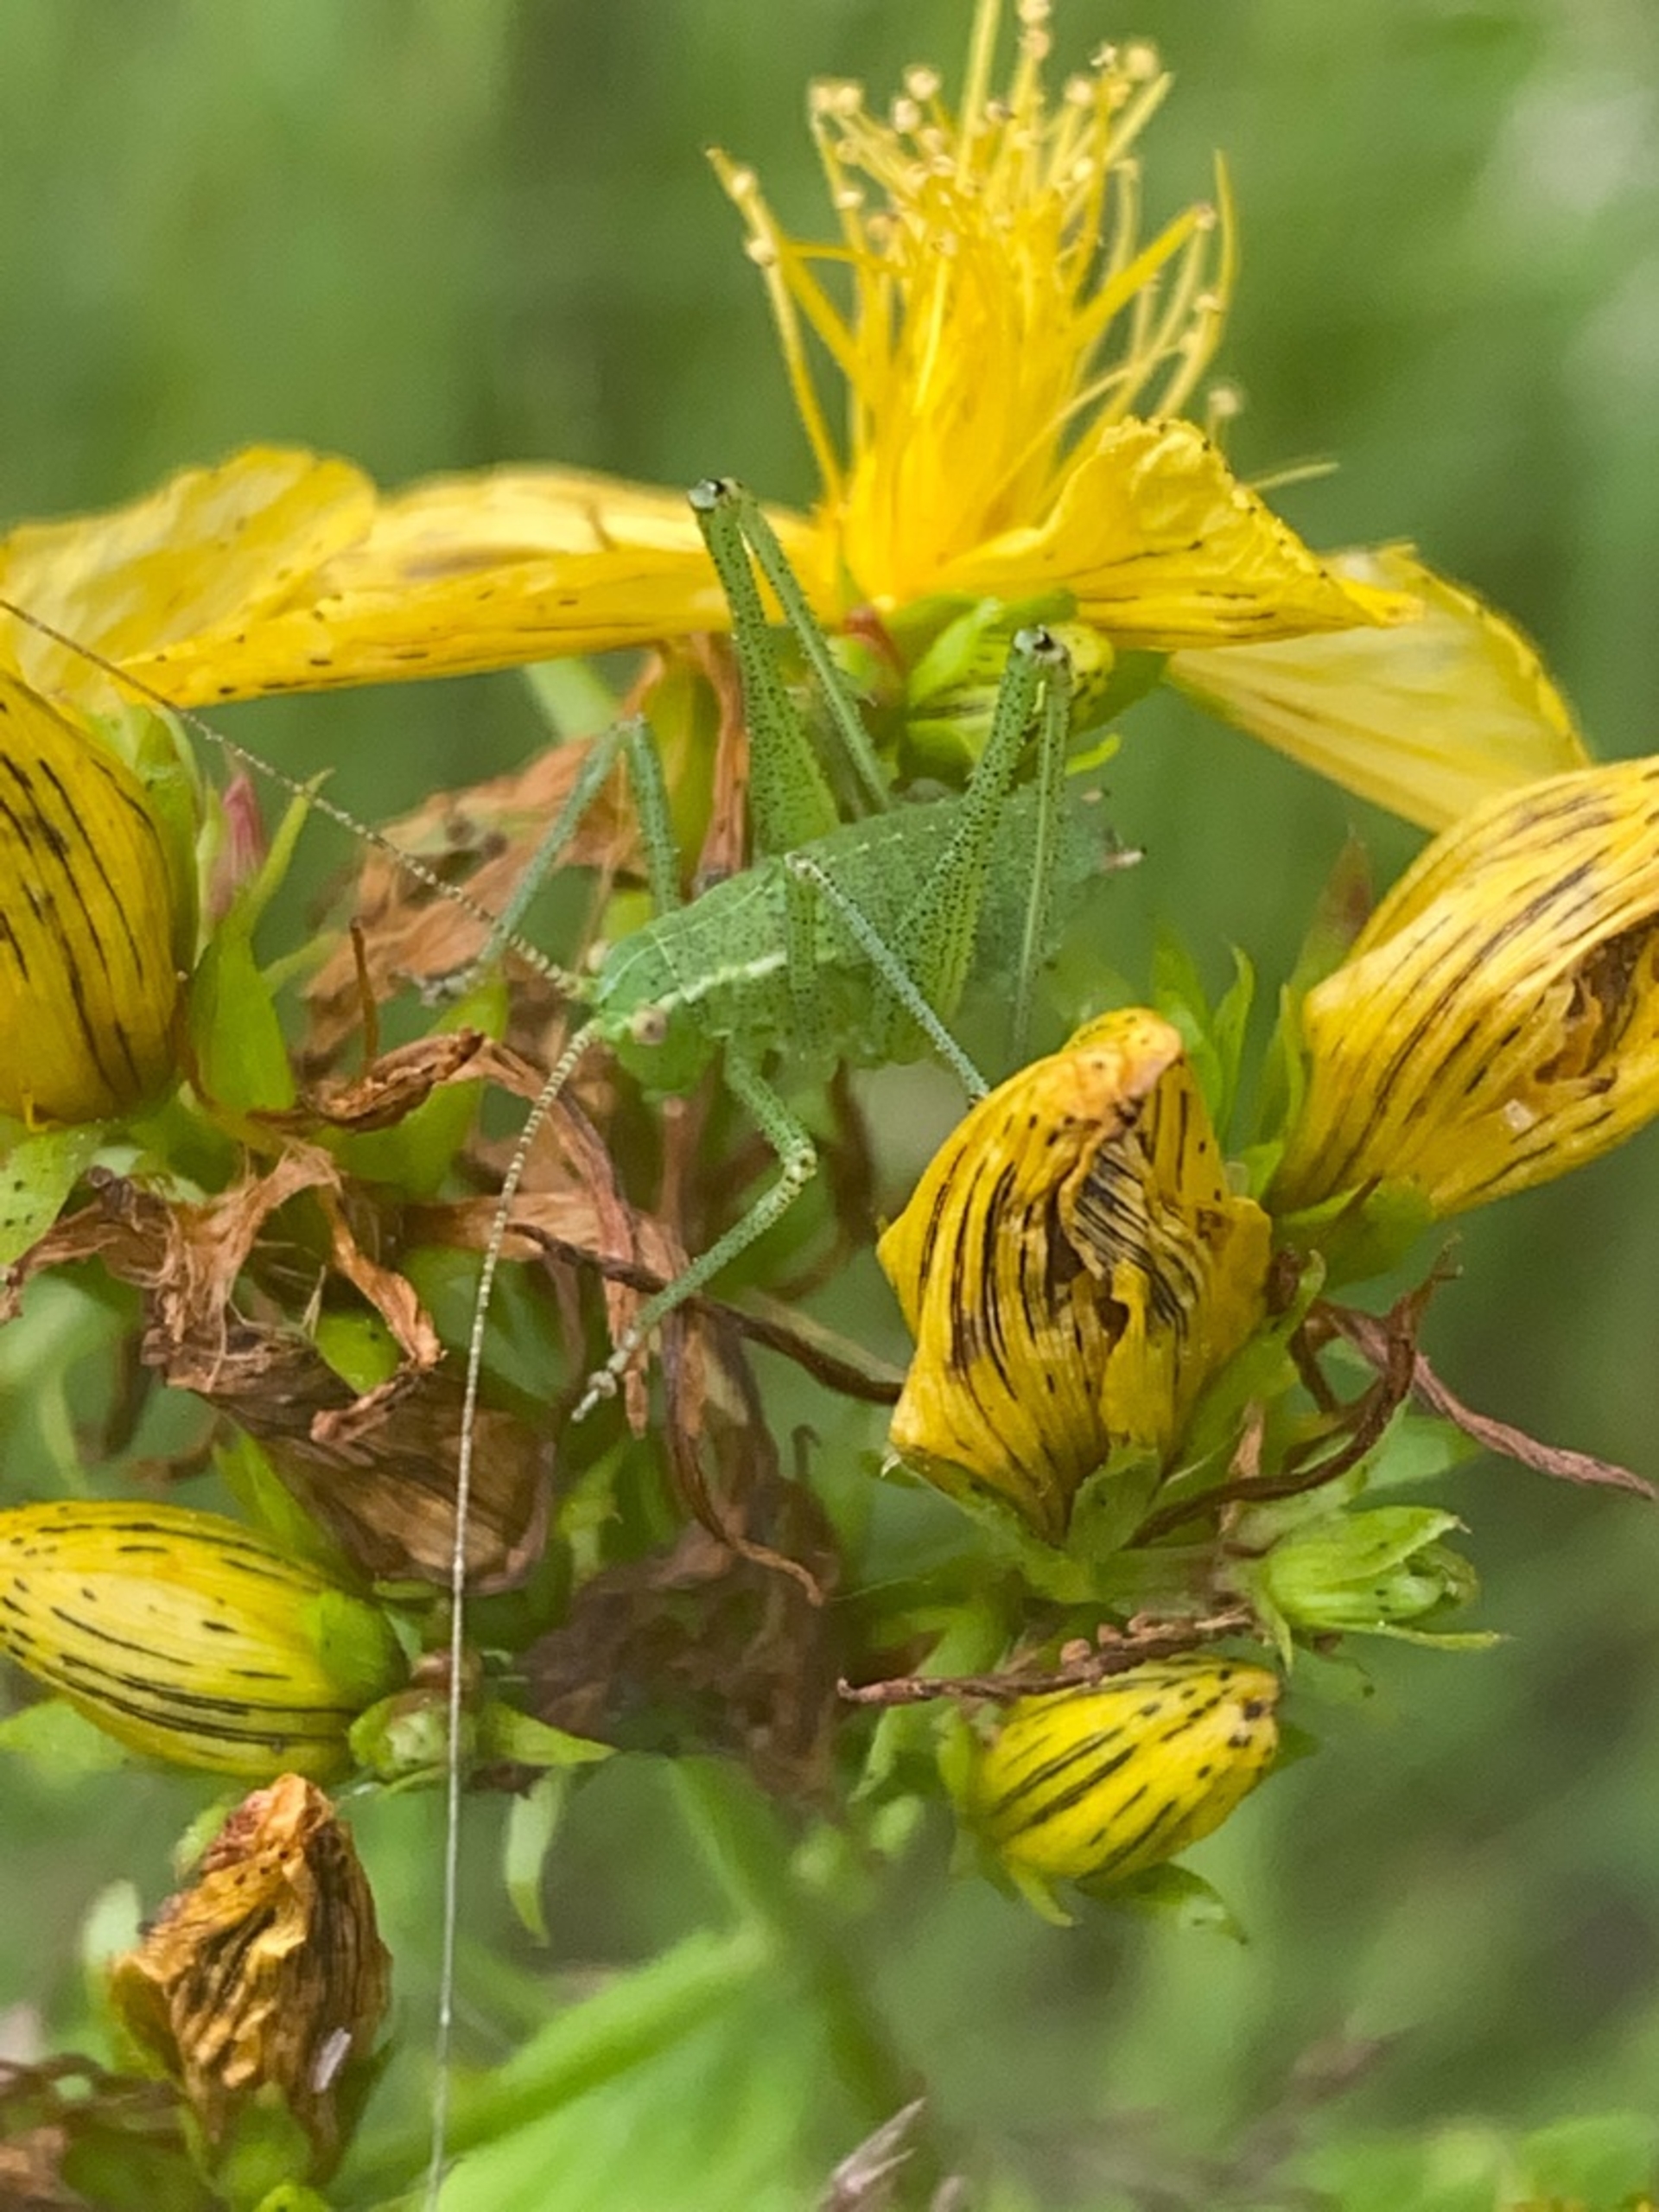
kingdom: Animalia
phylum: Arthropoda
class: Insecta
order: Orthoptera
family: Tettigoniidae
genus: Leptophyes
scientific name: Leptophyes punctatissima
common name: Krumknivgræshoppe
